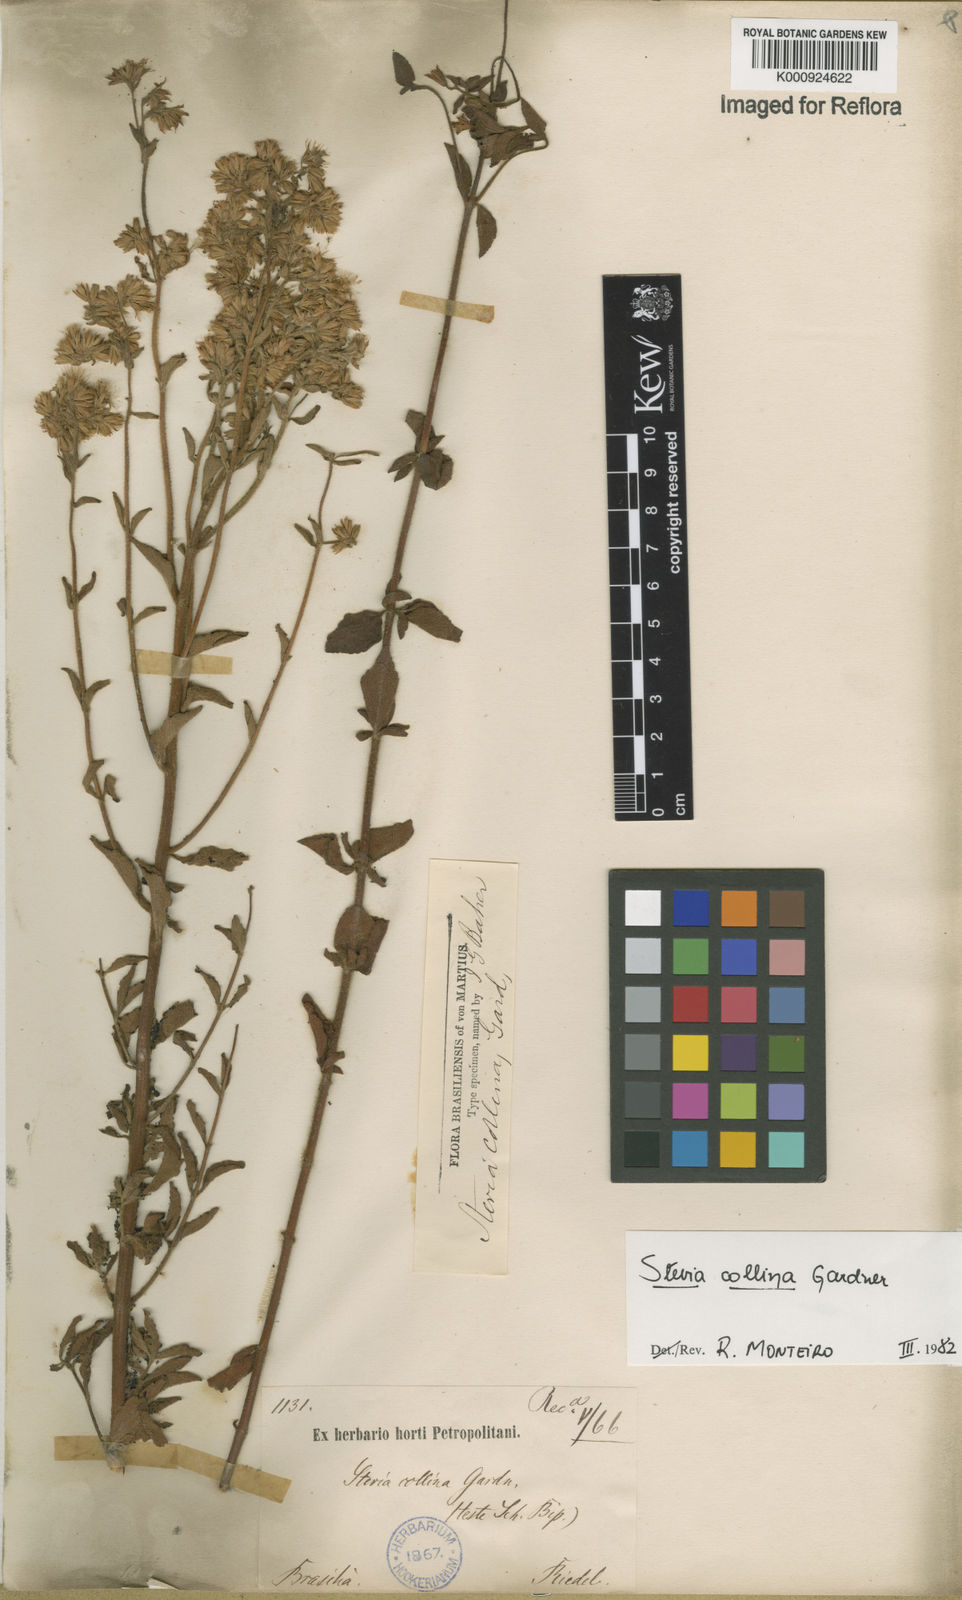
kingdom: Plantae
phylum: Tracheophyta
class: Magnoliopsida
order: Asterales
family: Asteraceae
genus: Stevia
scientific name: Stevia collina
